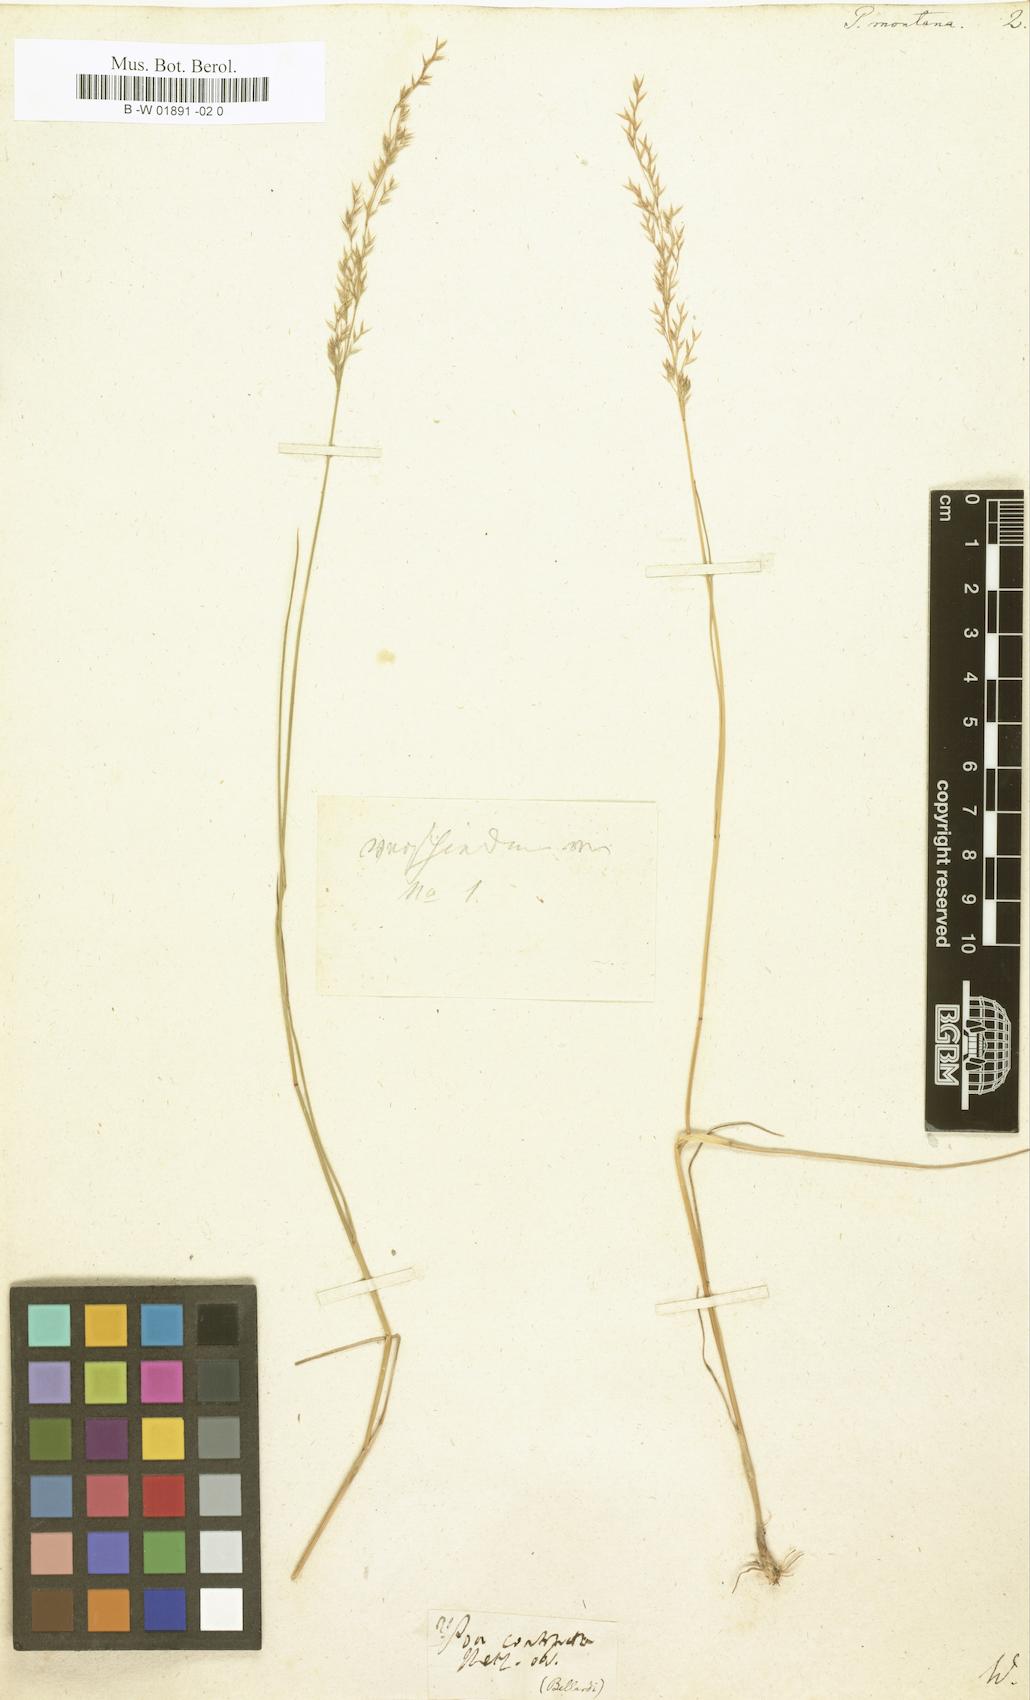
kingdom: Plantae
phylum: Tracheophyta
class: Liliopsida
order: Poales
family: Poaceae
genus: Poa
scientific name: Poa pratensis
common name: Kentucky bluegrass
